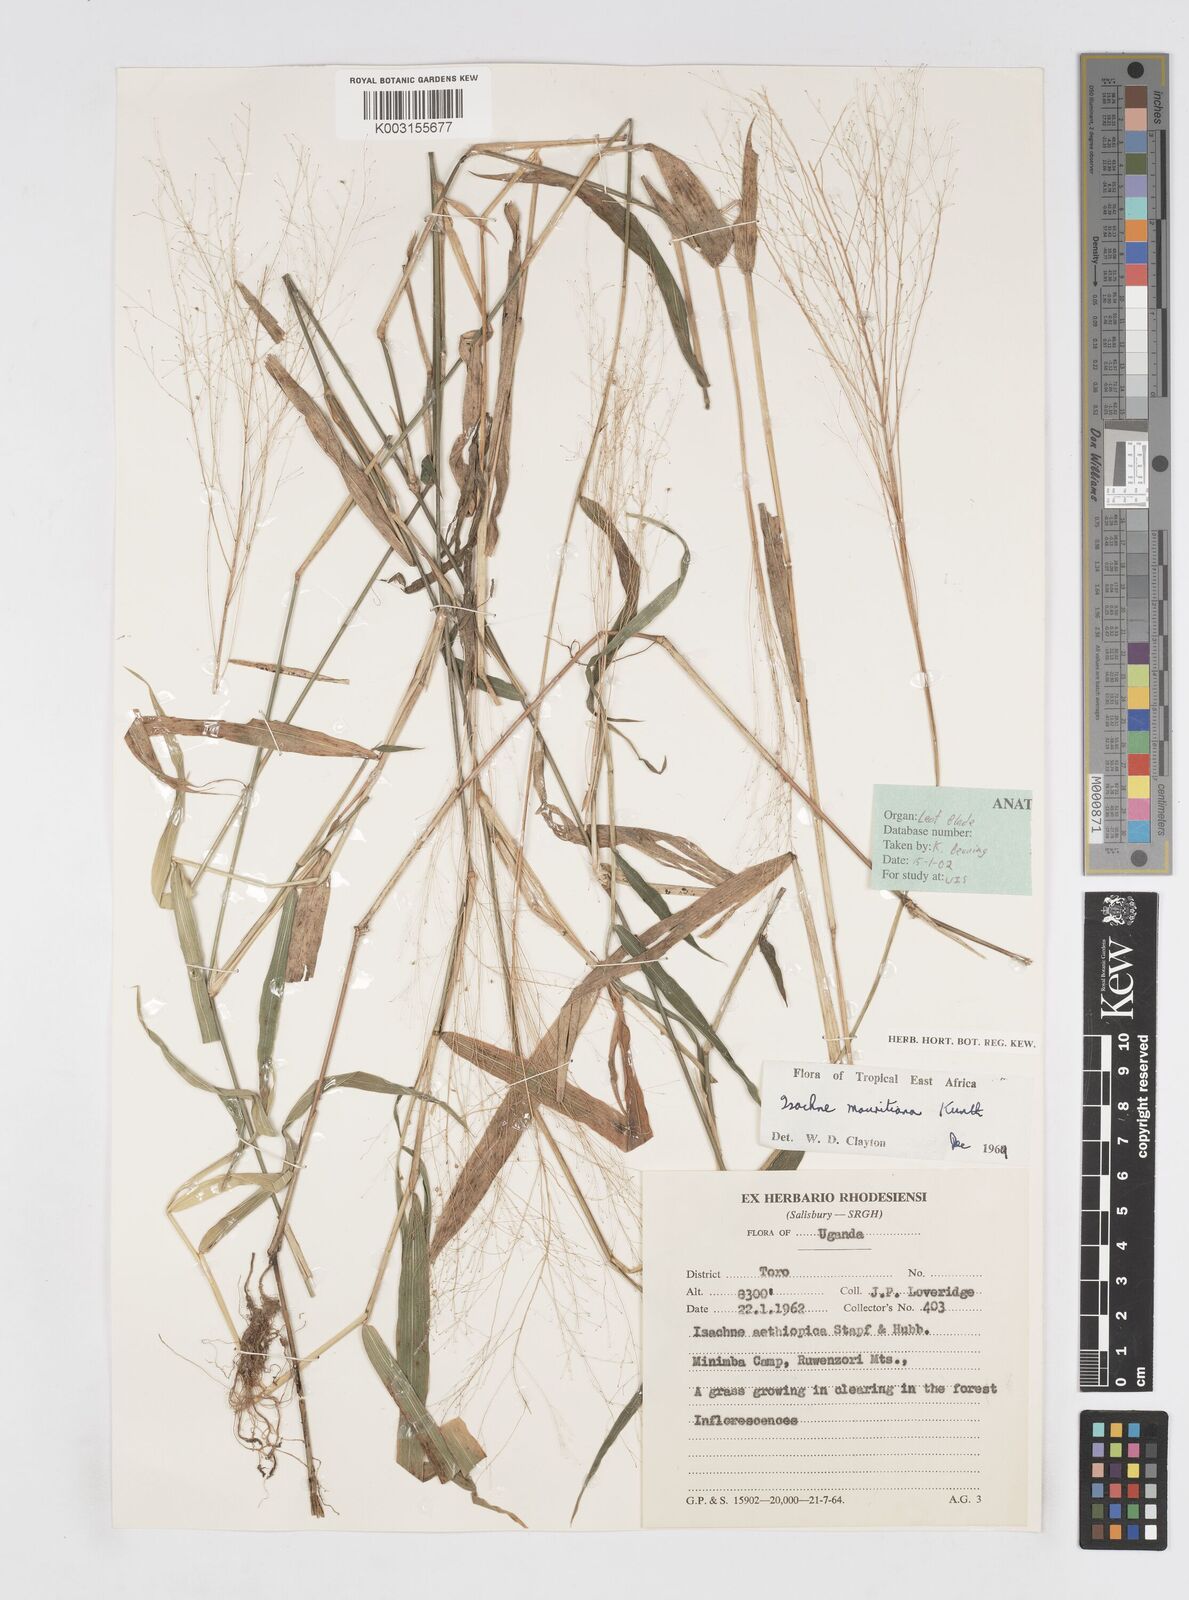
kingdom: Plantae
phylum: Tracheophyta
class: Liliopsida
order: Poales
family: Poaceae
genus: Isachne
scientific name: Isachne mauritiana
